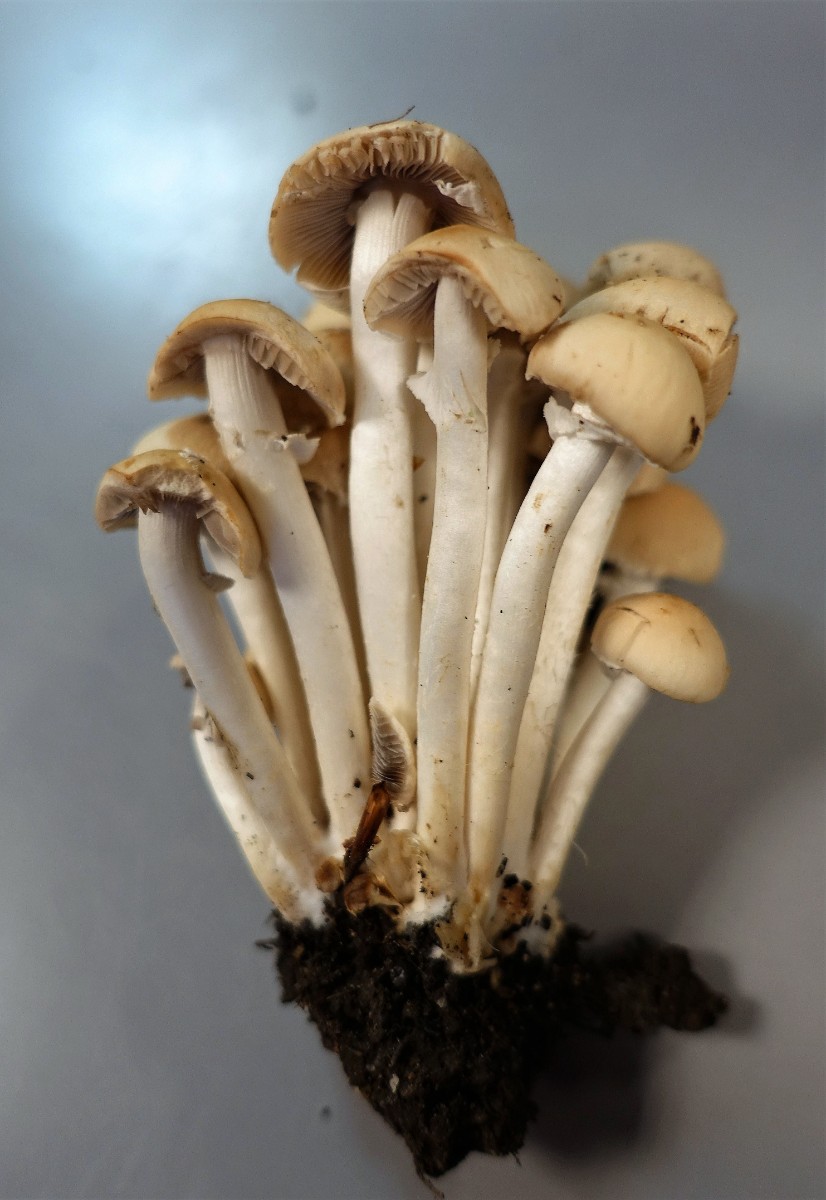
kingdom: Fungi
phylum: Basidiomycota
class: Agaricomycetes
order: Agaricales
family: Psathyrellaceae
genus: Candolleomyces
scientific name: Candolleomyces leucotephrus
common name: askehvid mørkhat
